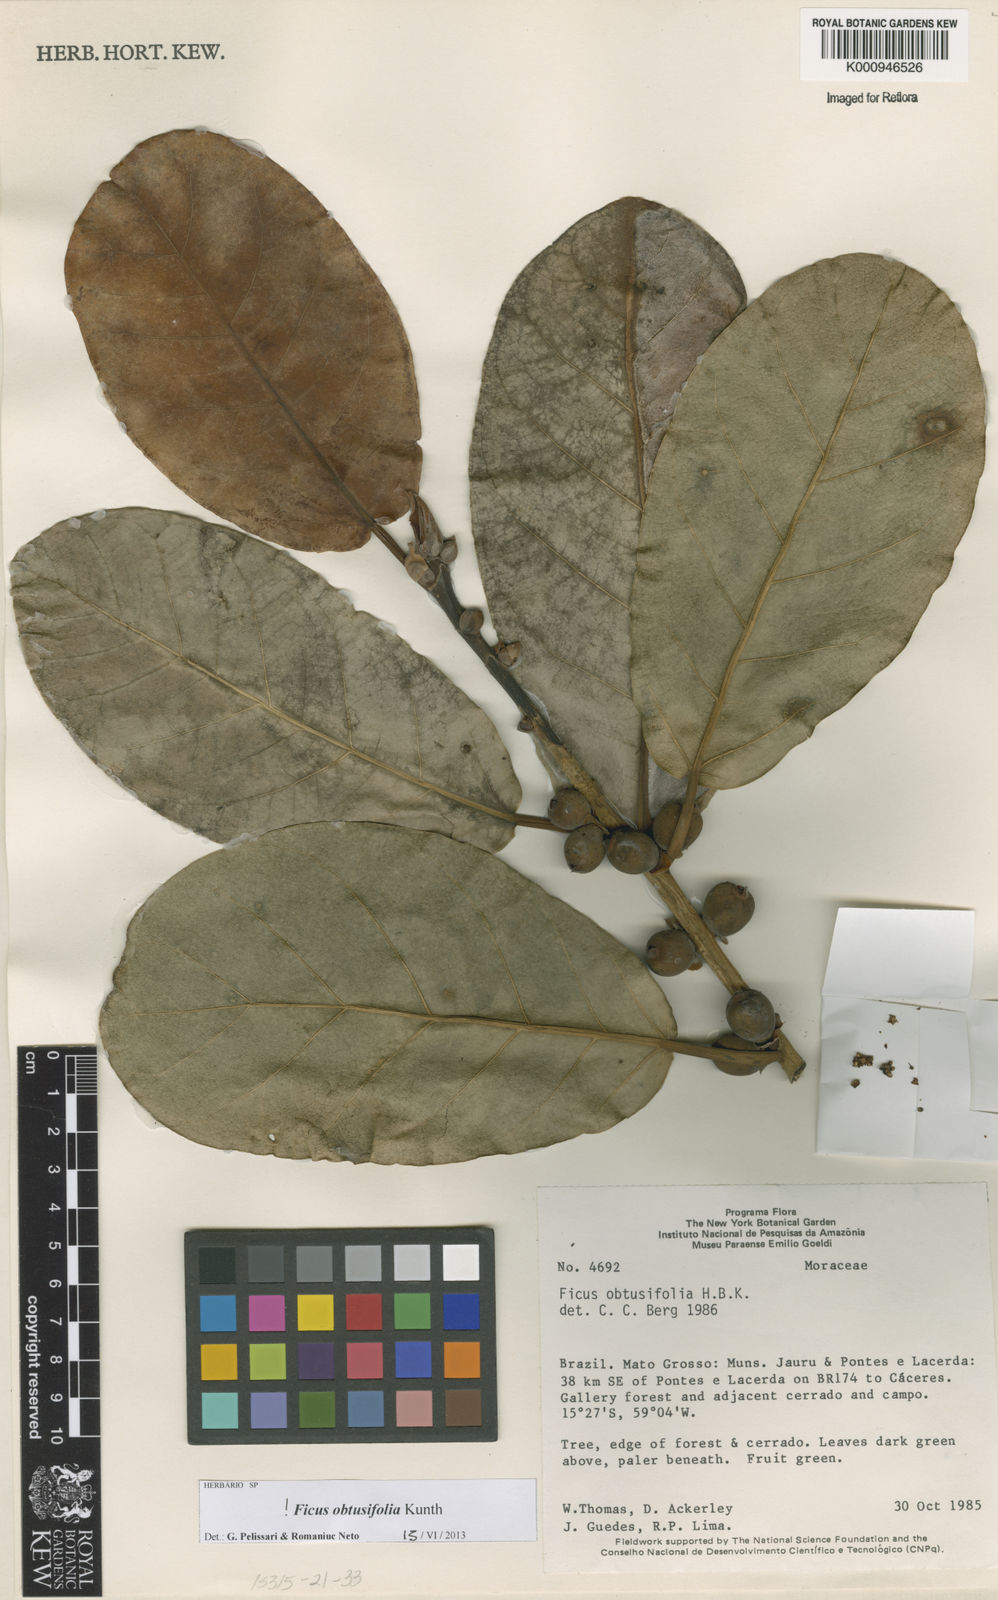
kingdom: Plantae
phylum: Tracheophyta
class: Magnoliopsida
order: Rosales
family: Moraceae
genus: Ficus
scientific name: Ficus obtusifolia
